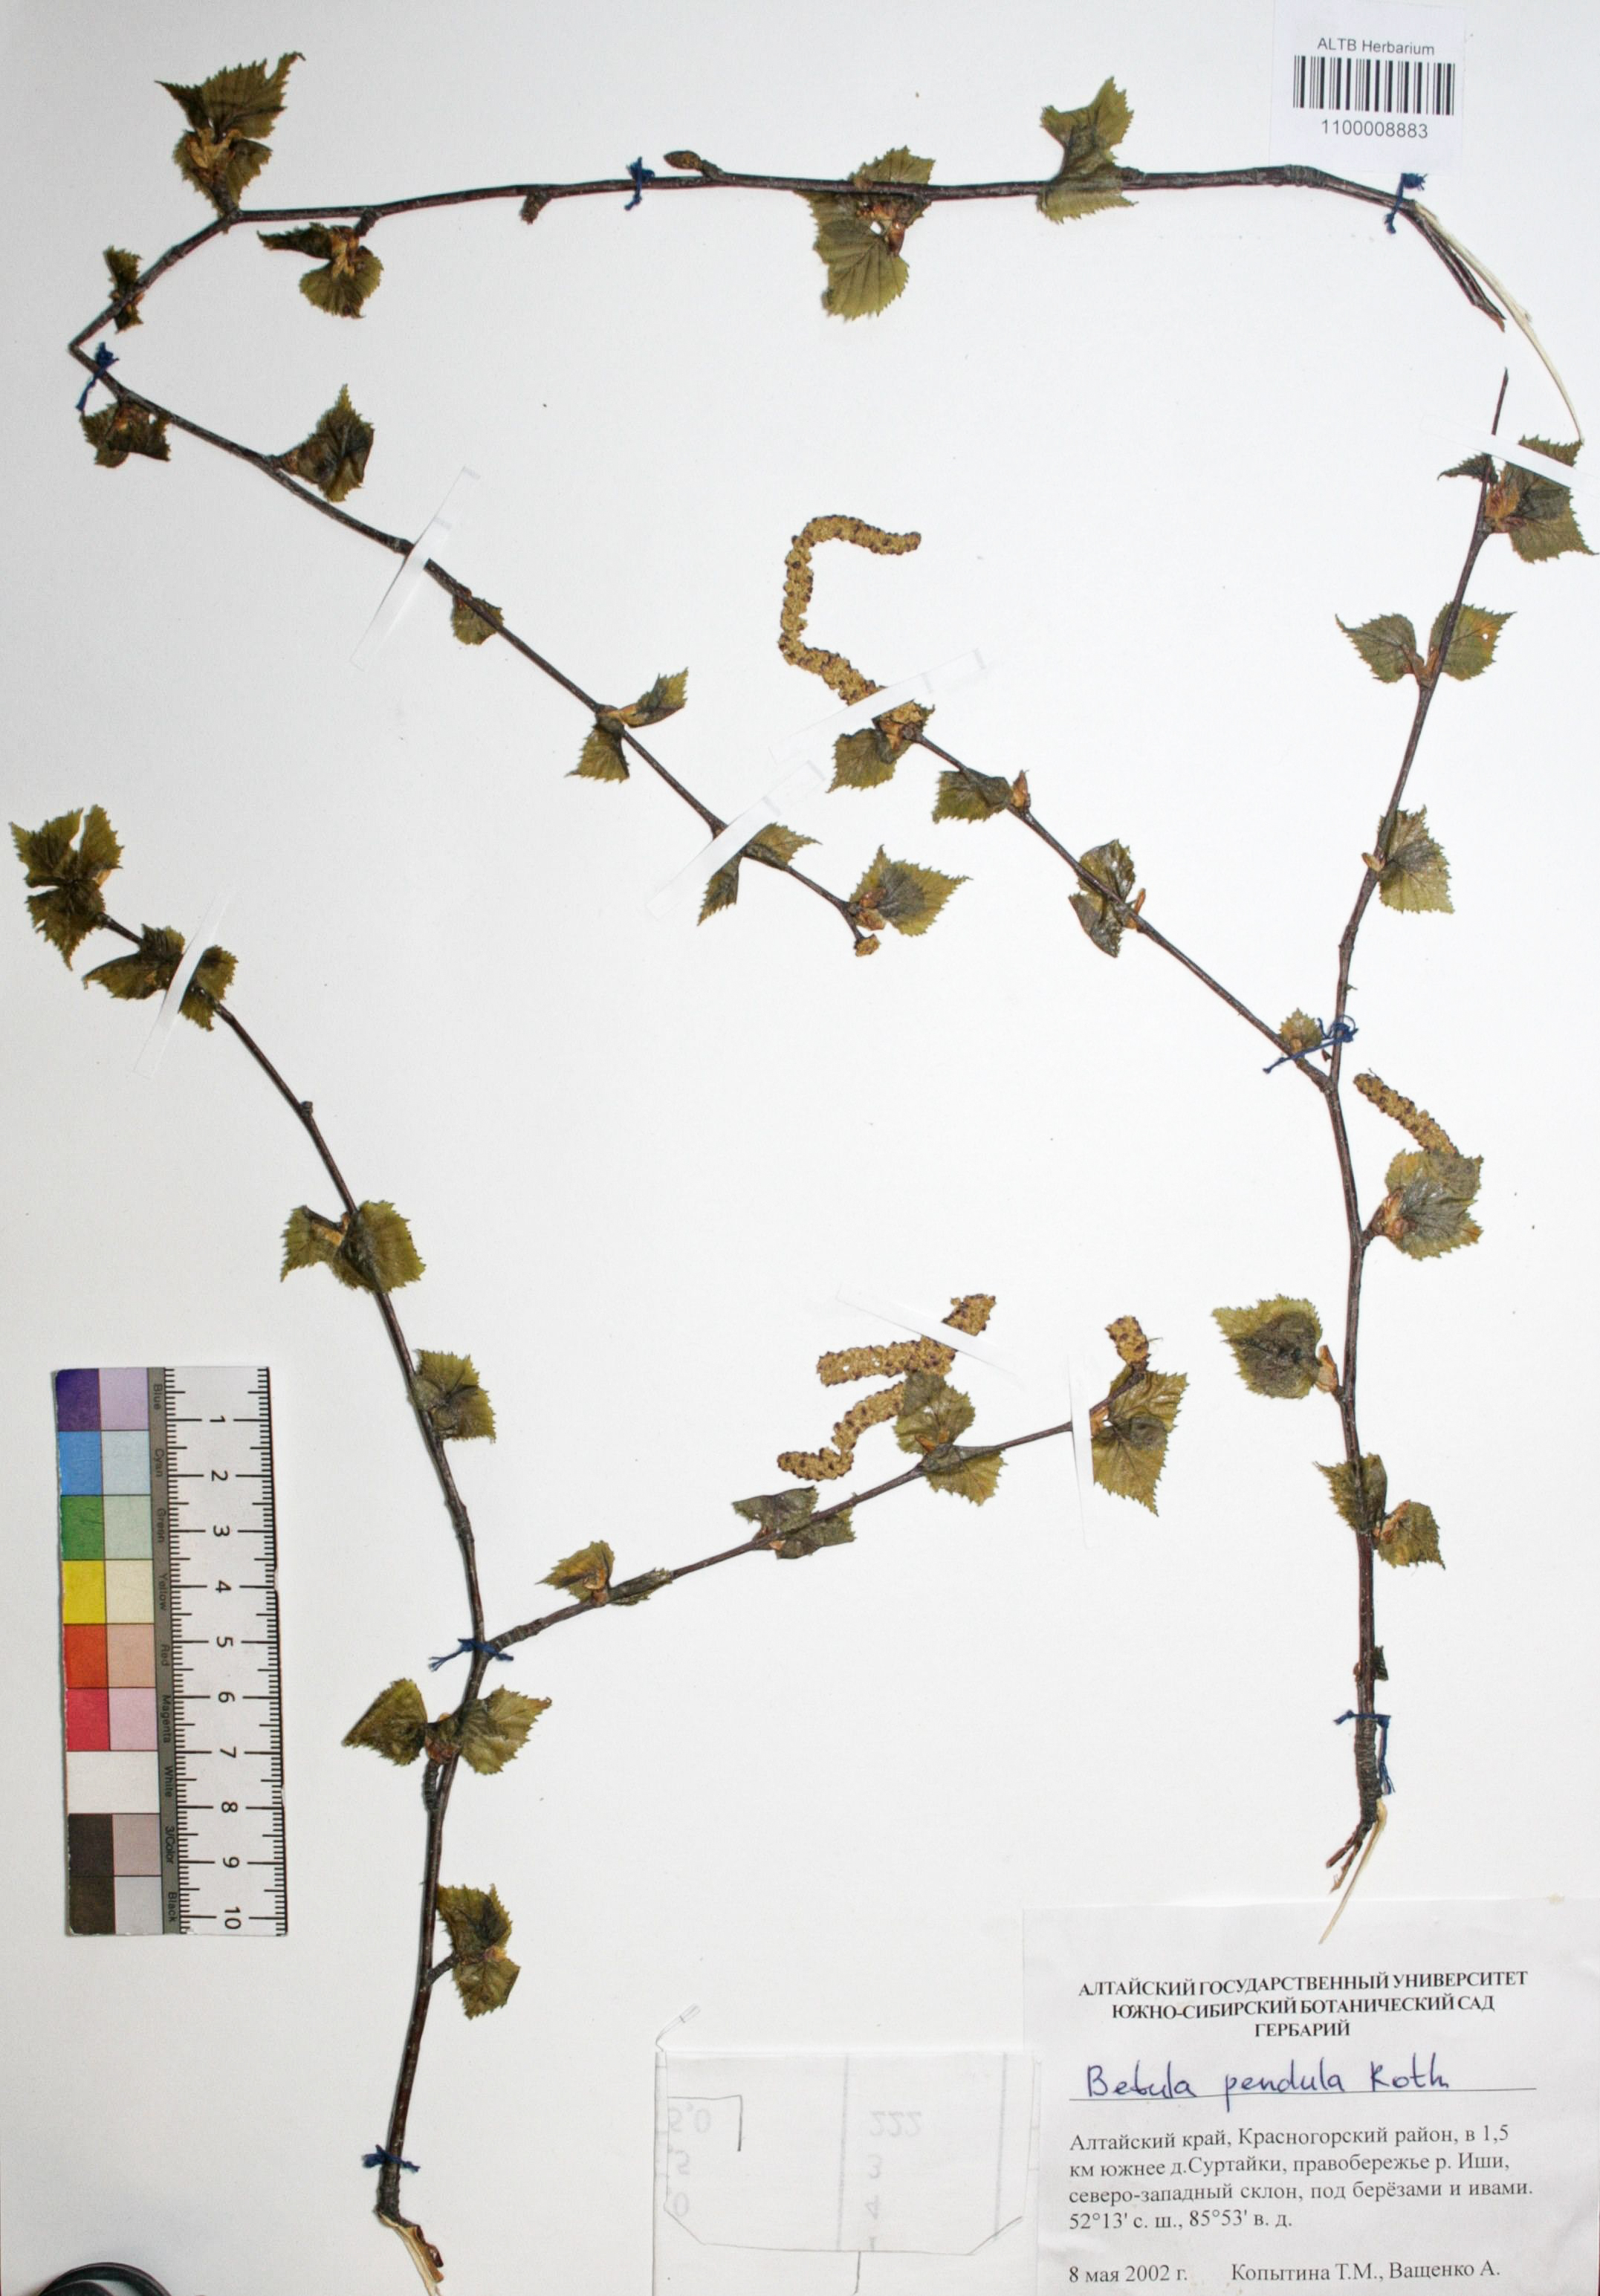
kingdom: Plantae
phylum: Tracheophyta
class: Magnoliopsida
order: Fagales
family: Betulaceae
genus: Betula
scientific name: Betula pendula
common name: Silver birch
